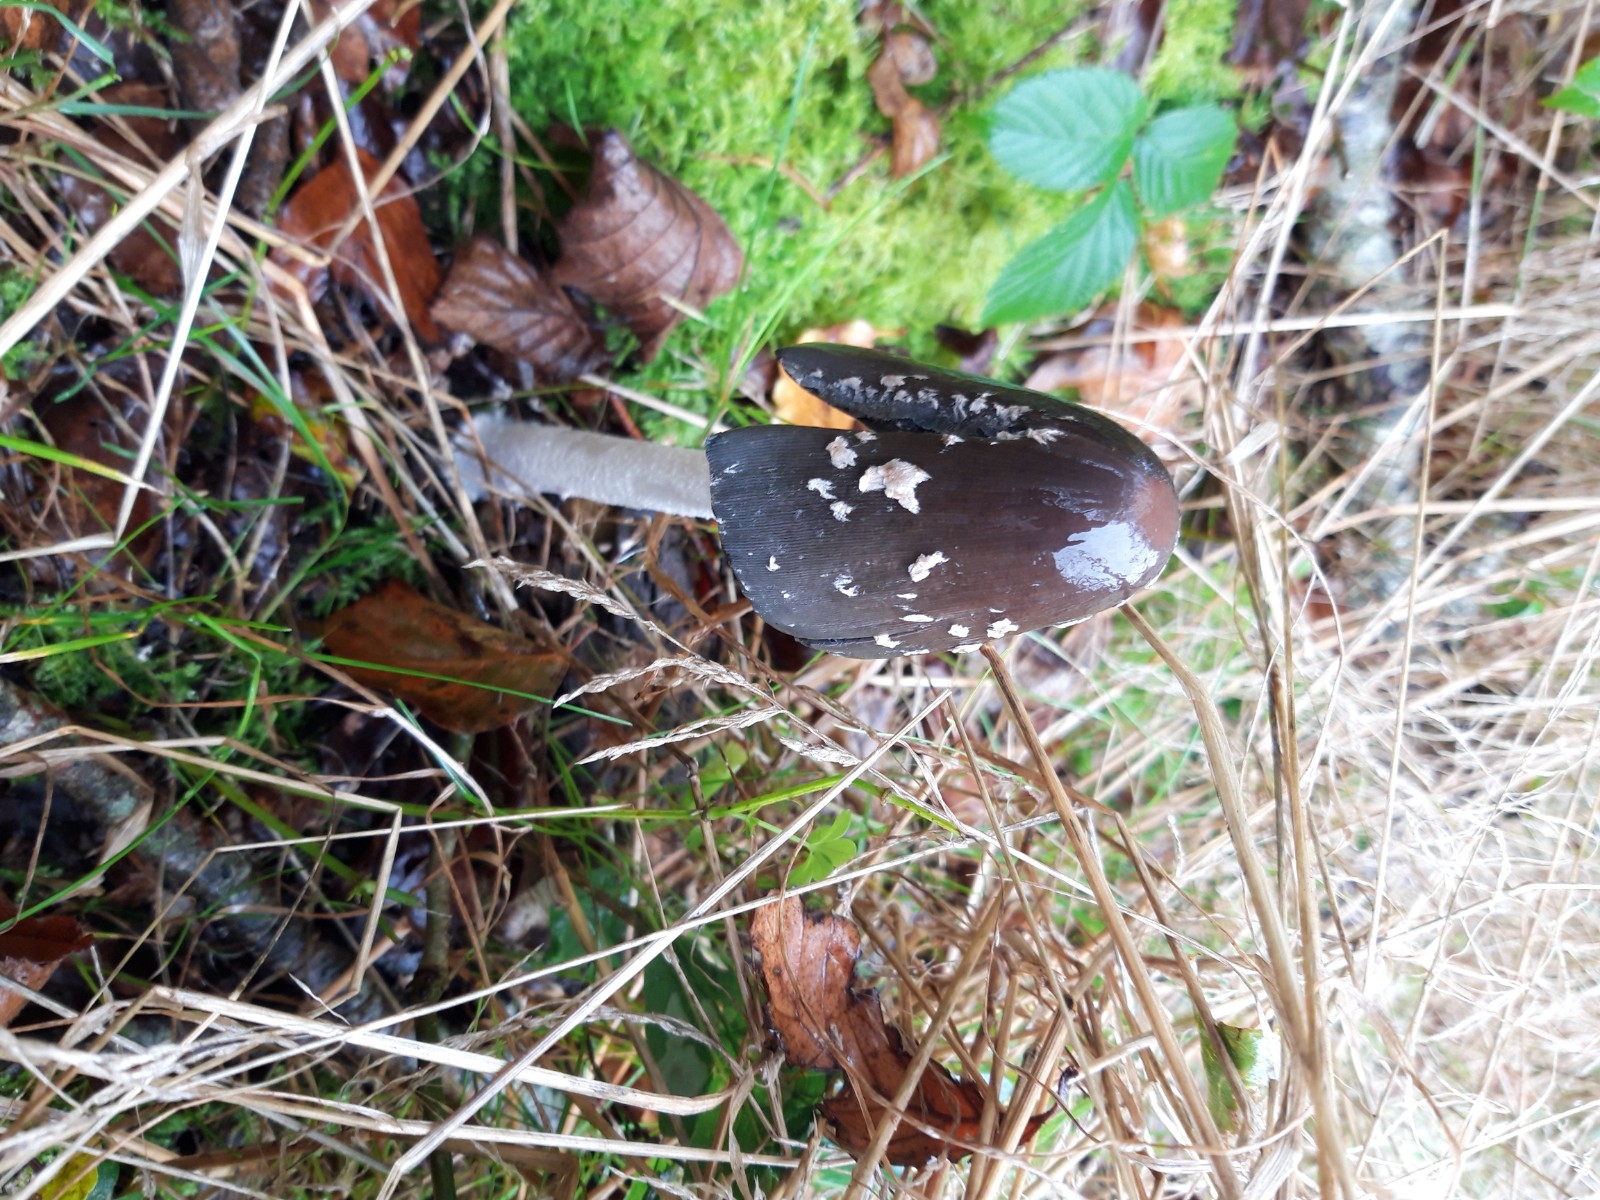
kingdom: Fungi
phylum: Basidiomycota
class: Agaricomycetes
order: Agaricales
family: Psathyrellaceae
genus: Coprinopsis
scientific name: Coprinopsis picacea
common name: skade-blækhat
